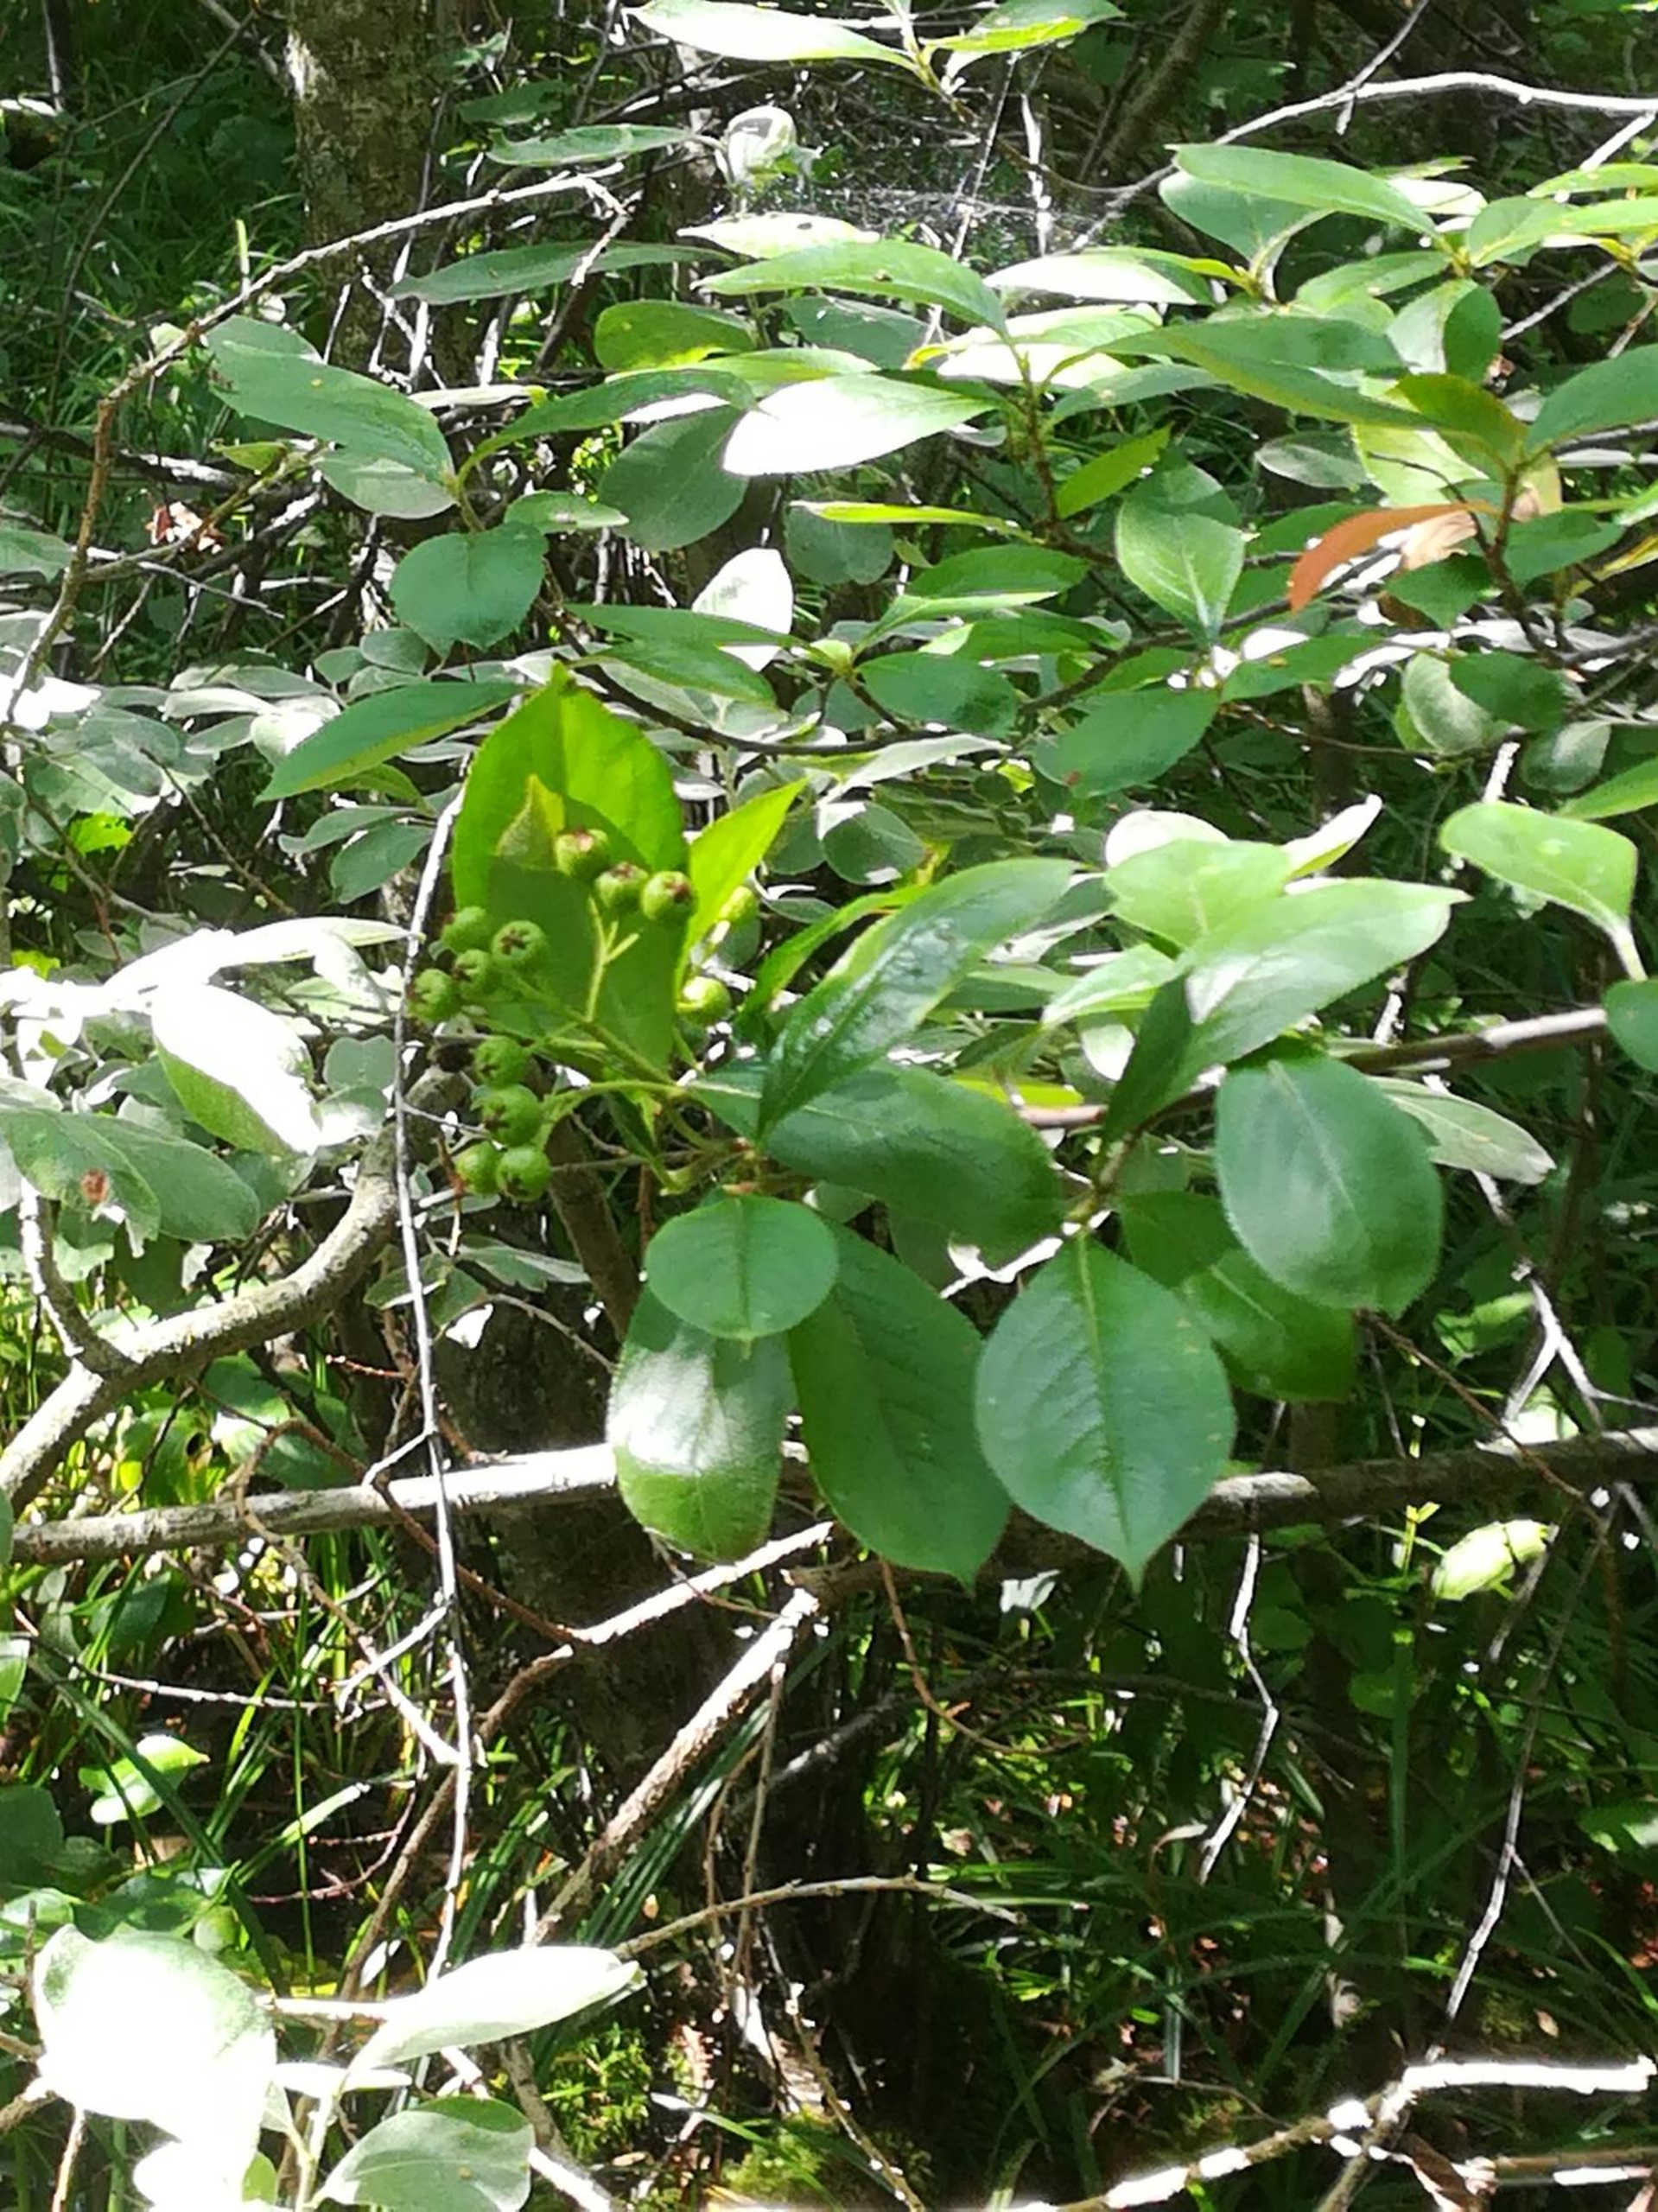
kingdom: Plantae
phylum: Tracheophyta
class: Magnoliopsida
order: Rosales
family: Rosaceae
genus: Aronia
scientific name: Aronia melanocarpa
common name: Sortfrugtet surbær
